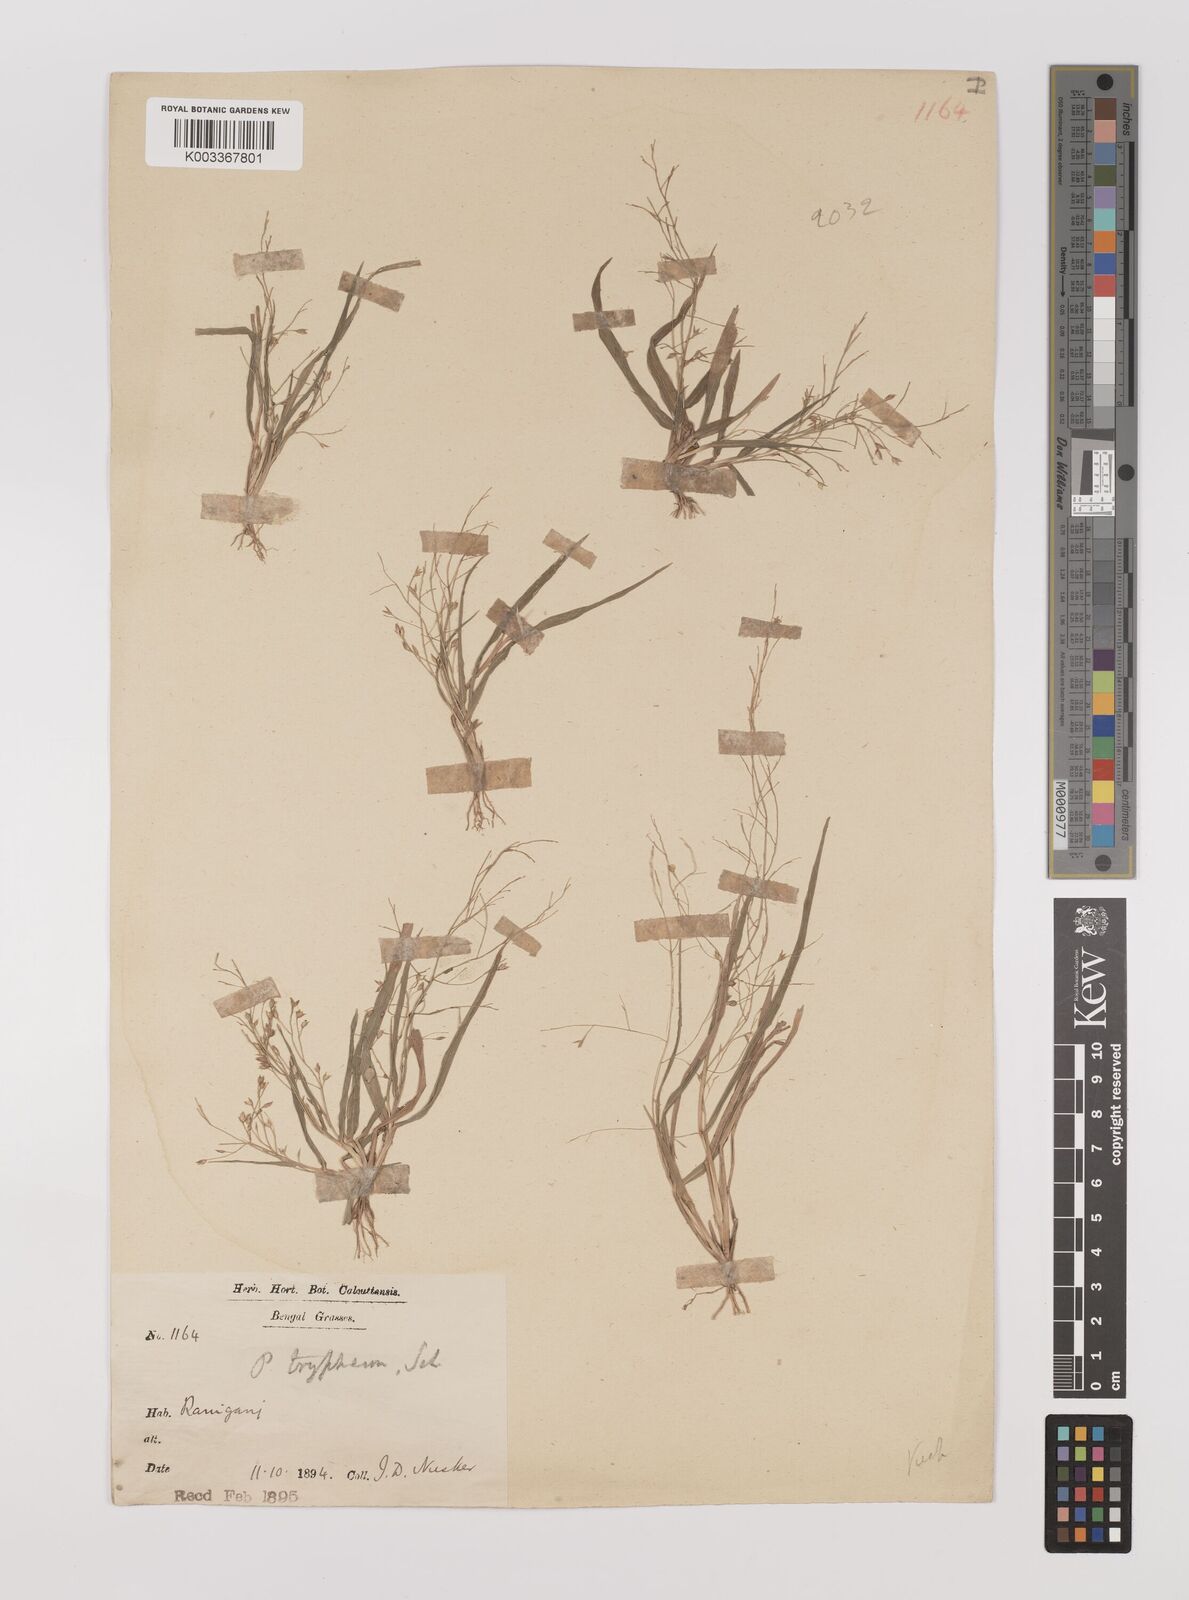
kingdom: Plantae
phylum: Tracheophyta
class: Liliopsida
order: Poales
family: Poaceae
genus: Panicum
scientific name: Panicum curviflorum
